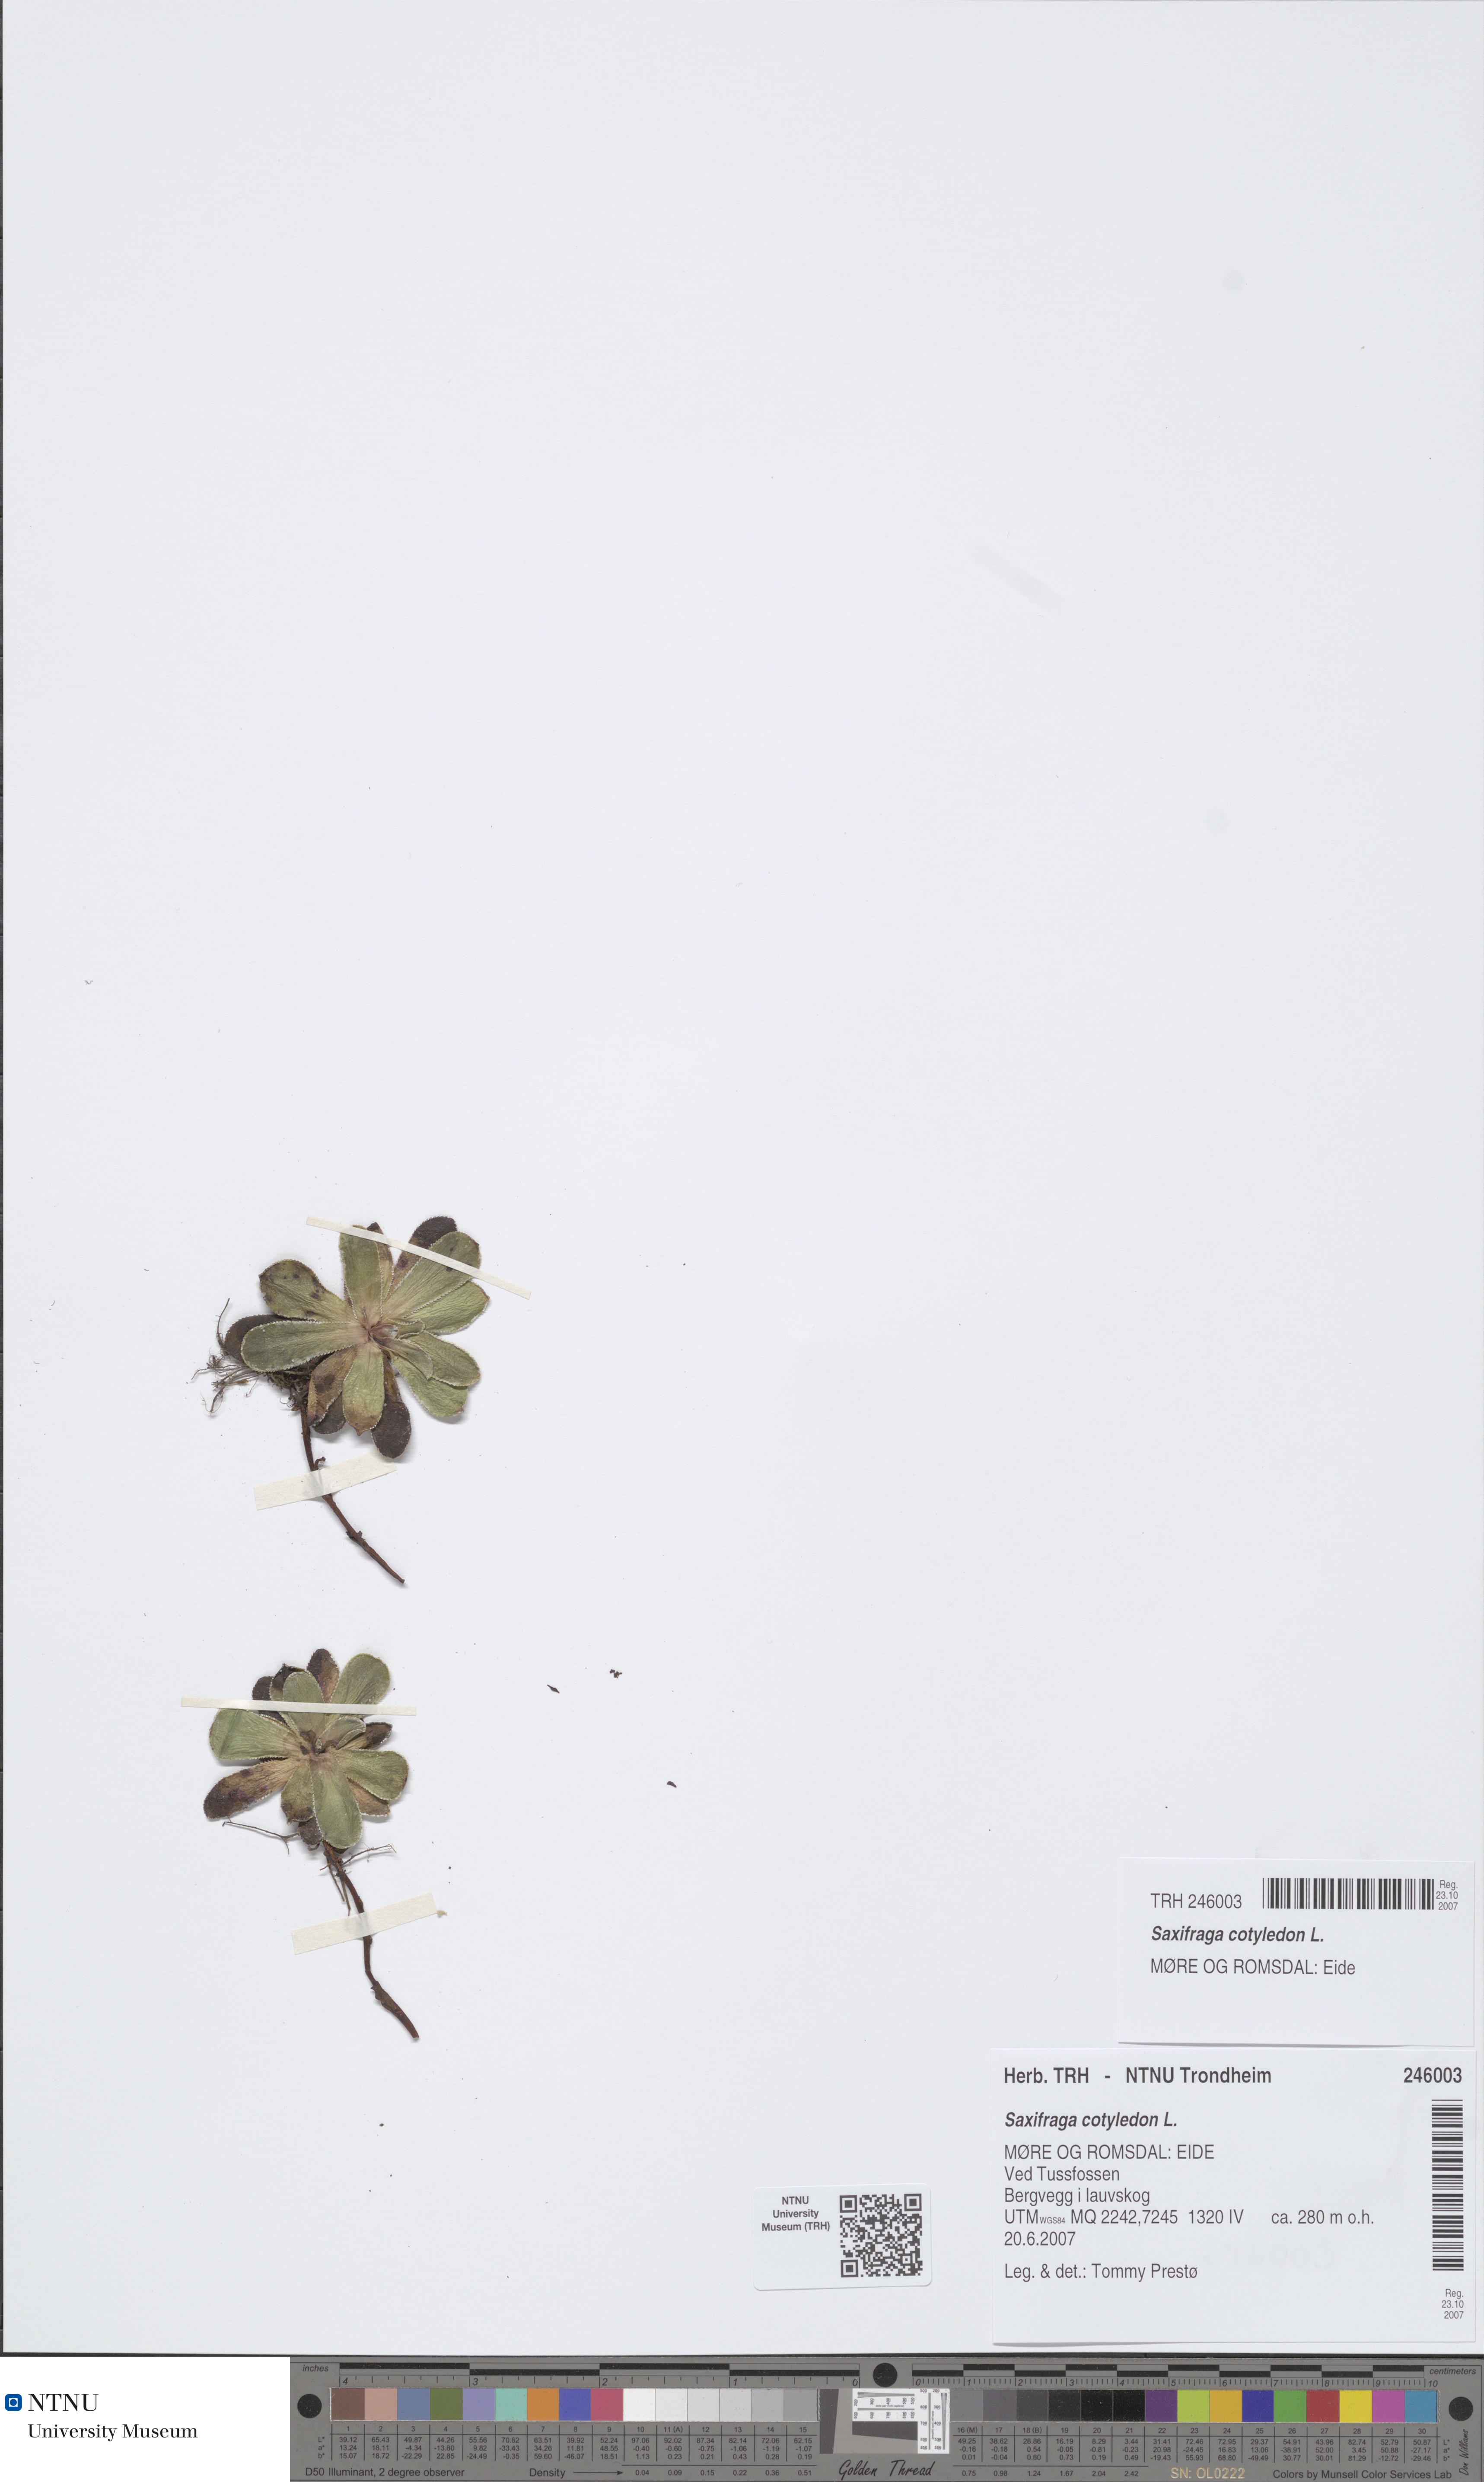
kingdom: Plantae
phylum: Tracheophyta
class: Magnoliopsida
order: Saxifragales
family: Saxifragaceae
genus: Saxifraga
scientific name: Saxifraga cotyledon
